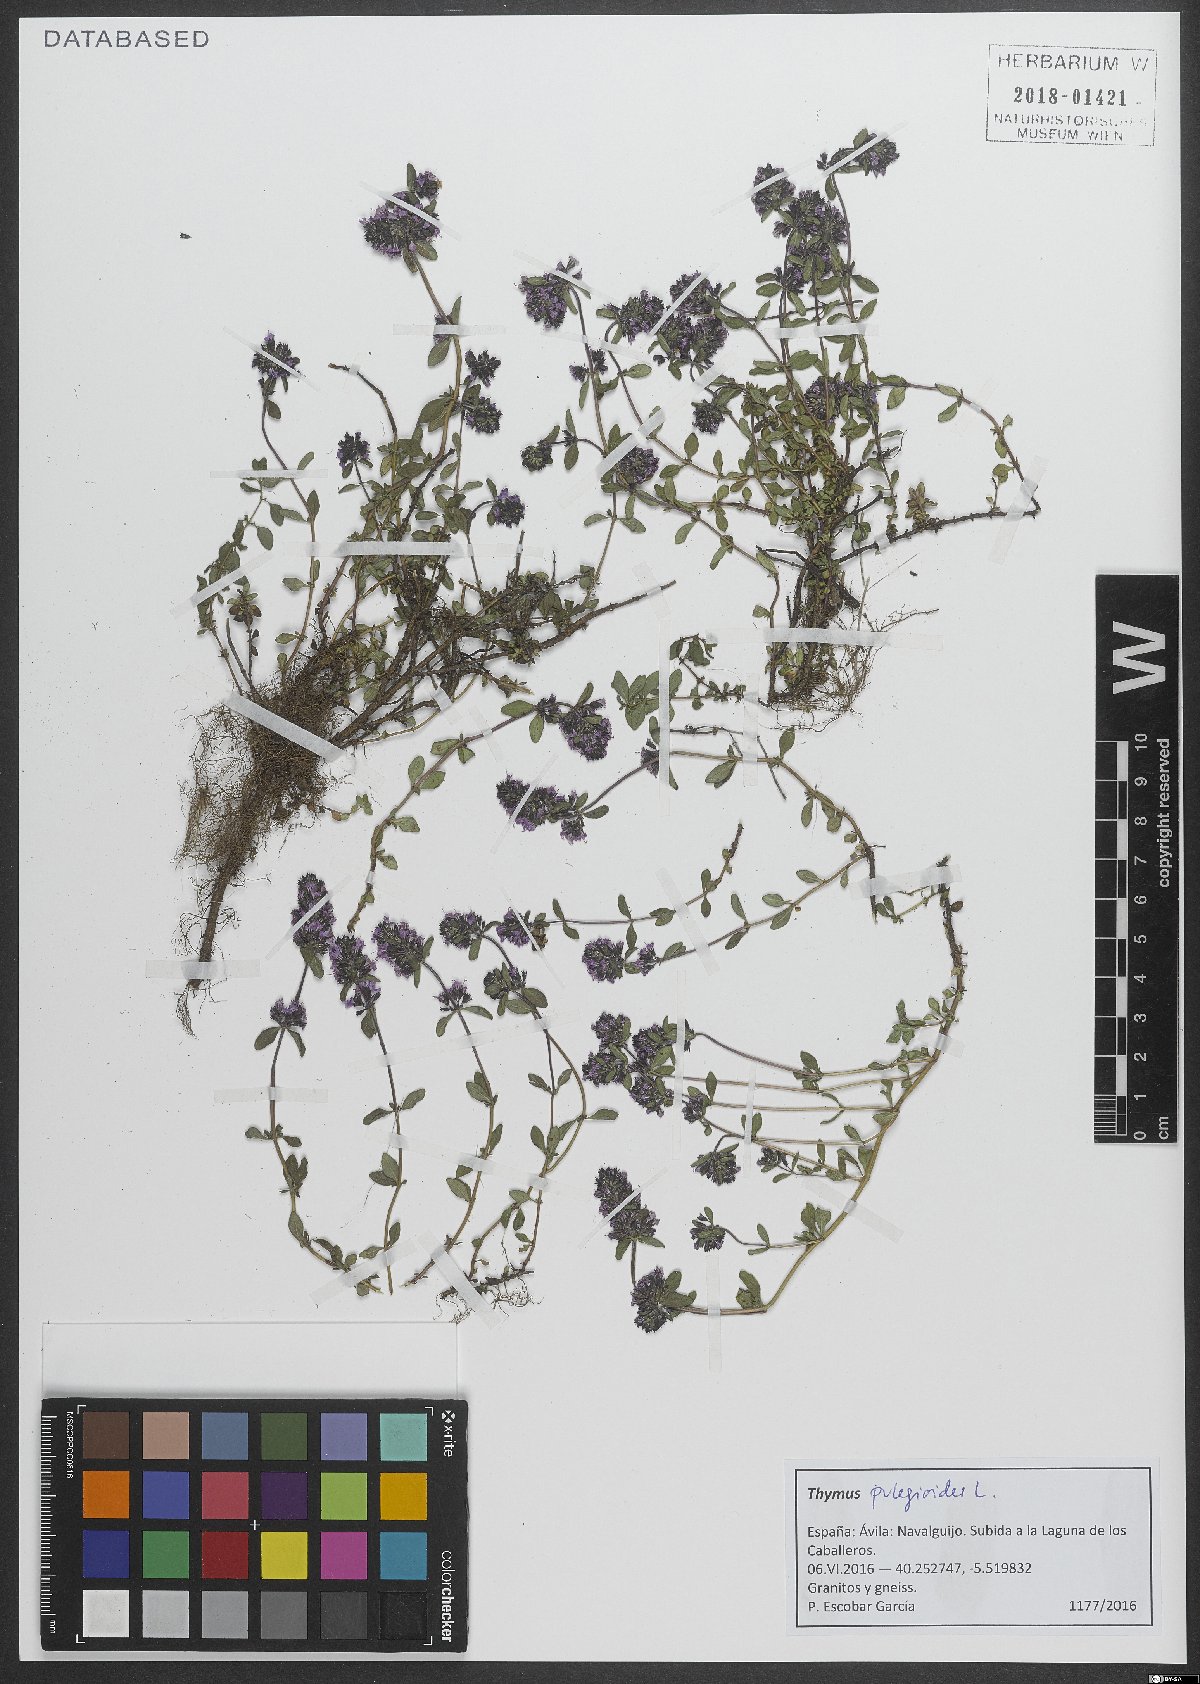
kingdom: Plantae
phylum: Tracheophyta
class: Magnoliopsida
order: Lamiales
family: Lamiaceae
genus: Thymus
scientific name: Thymus pulegioides
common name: Large thyme
